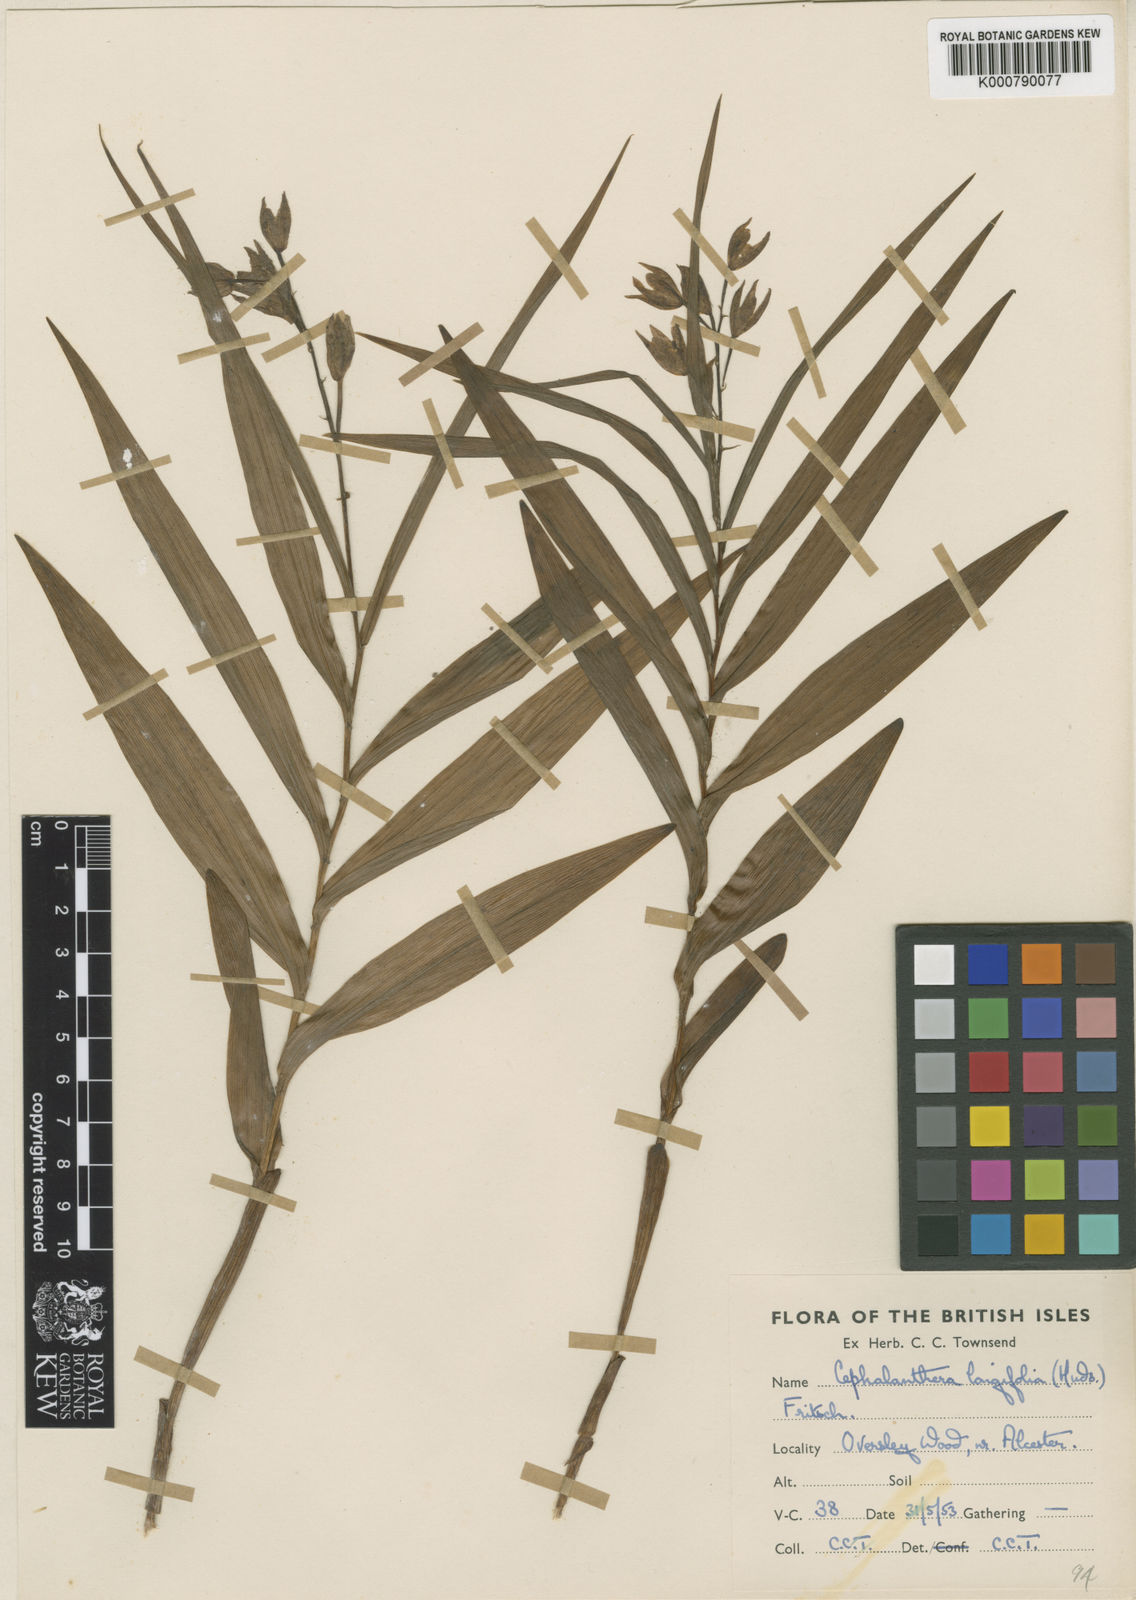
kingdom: Plantae
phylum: Tracheophyta
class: Liliopsida
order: Asparagales
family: Orchidaceae
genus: Cephalanthera
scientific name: Cephalanthera longifolia
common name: Narrow-leaved helleborine
